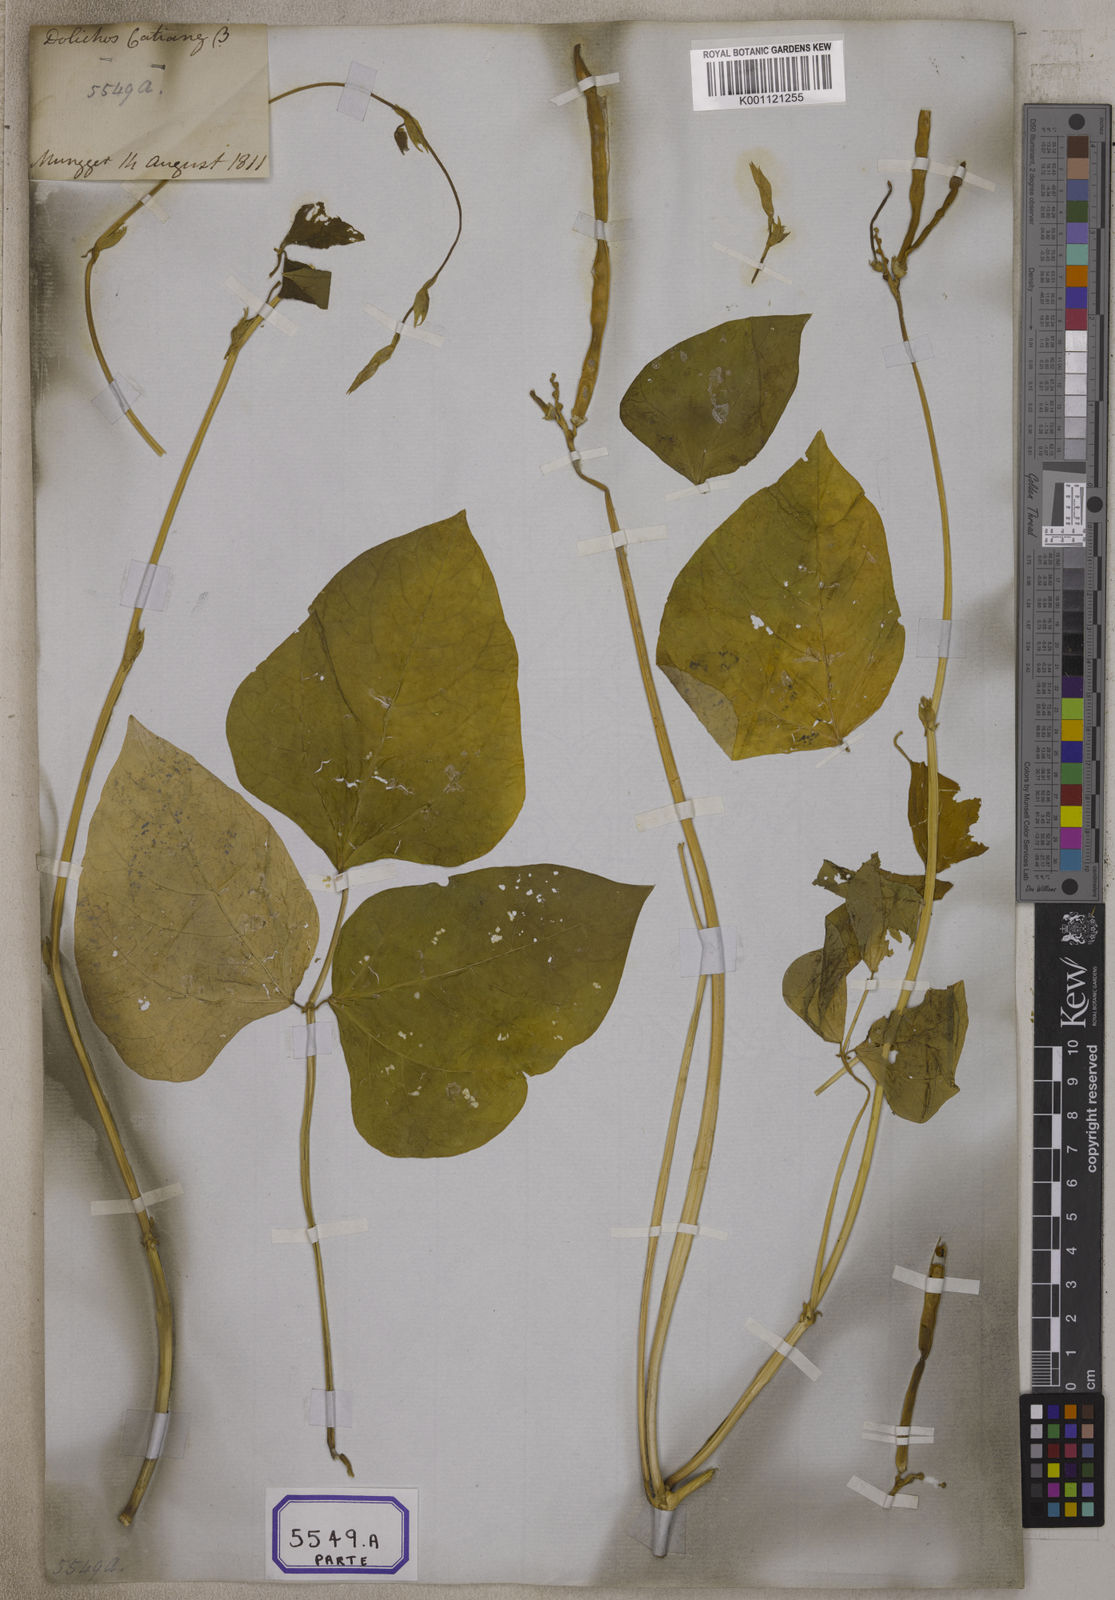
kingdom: Plantae
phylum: Tracheophyta
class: Magnoliopsida
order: Fabales
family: Fabaceae
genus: Vigna
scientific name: Vigna unguiculata
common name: Cowpea
